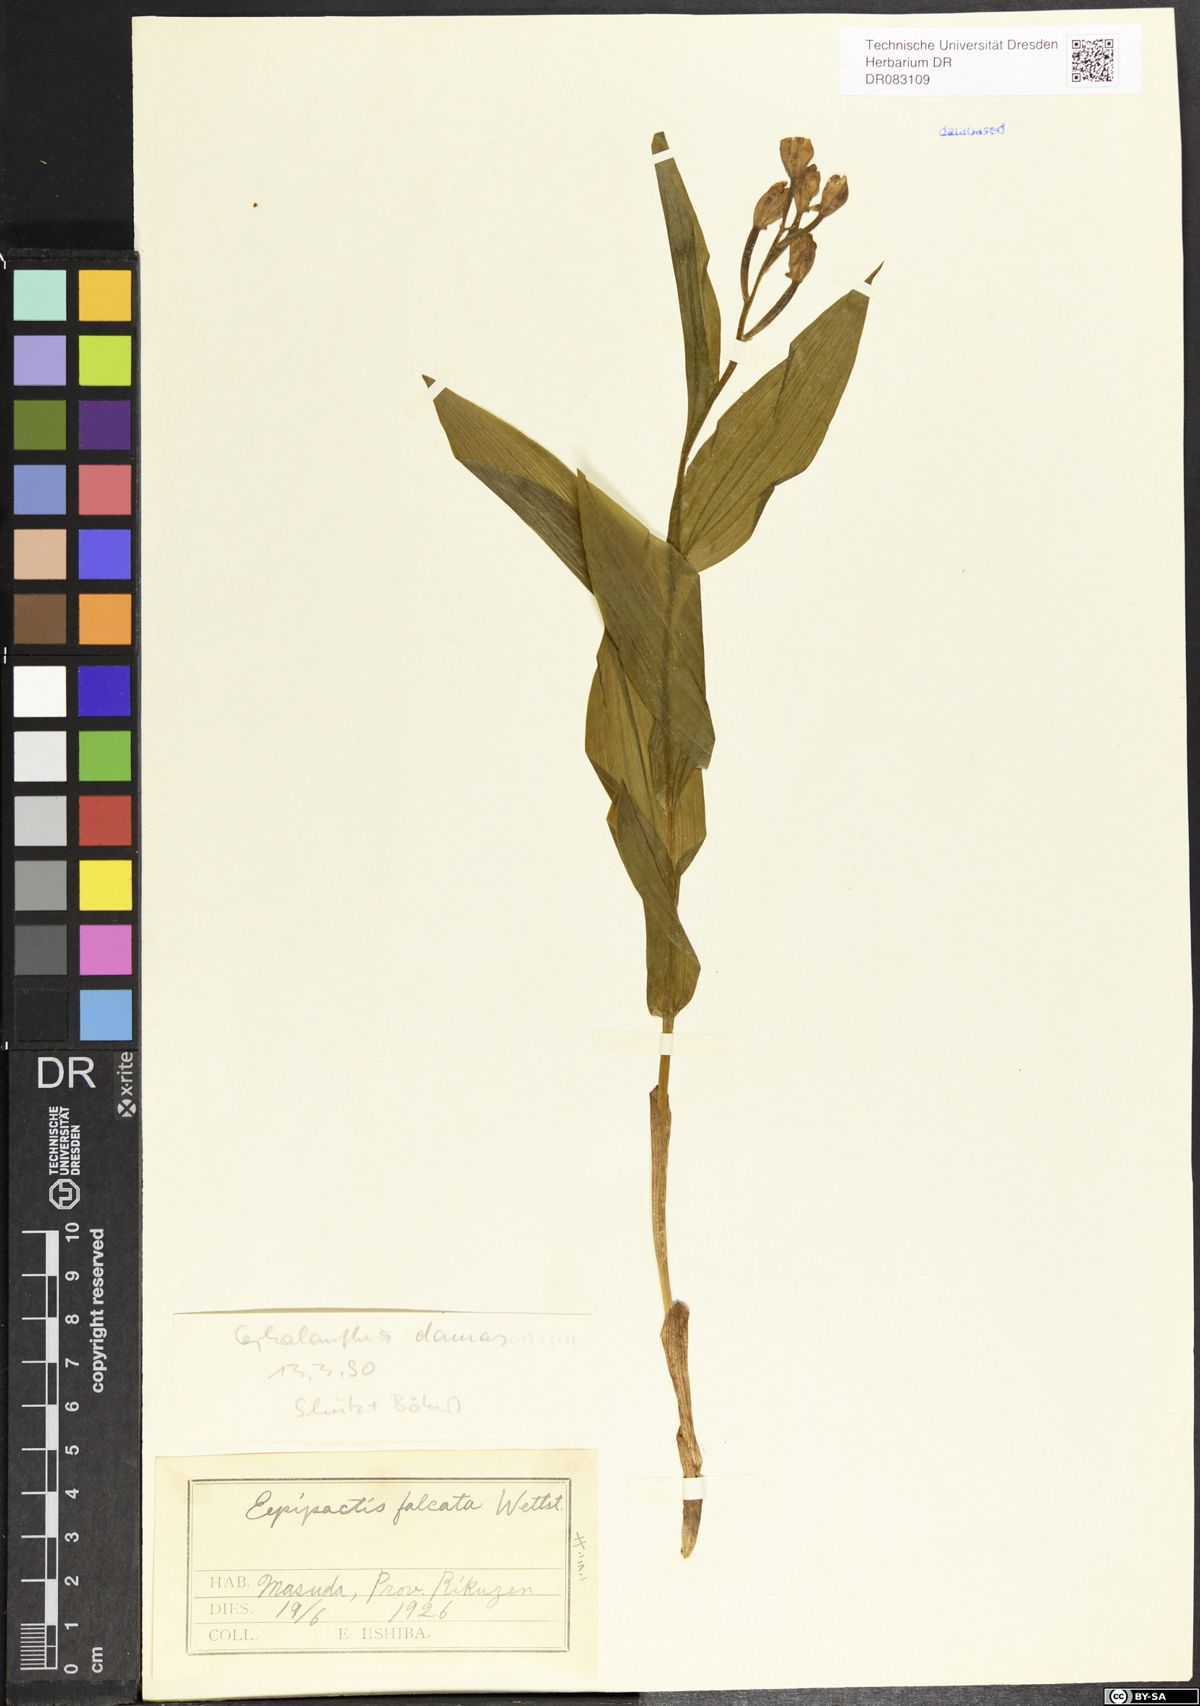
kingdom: Plantae
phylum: Tracheophyta
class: Liliopsida
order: Asparagales
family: Orchidaceae
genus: Cephalanthera
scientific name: Cephalanthera damasonium
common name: White helleborine
